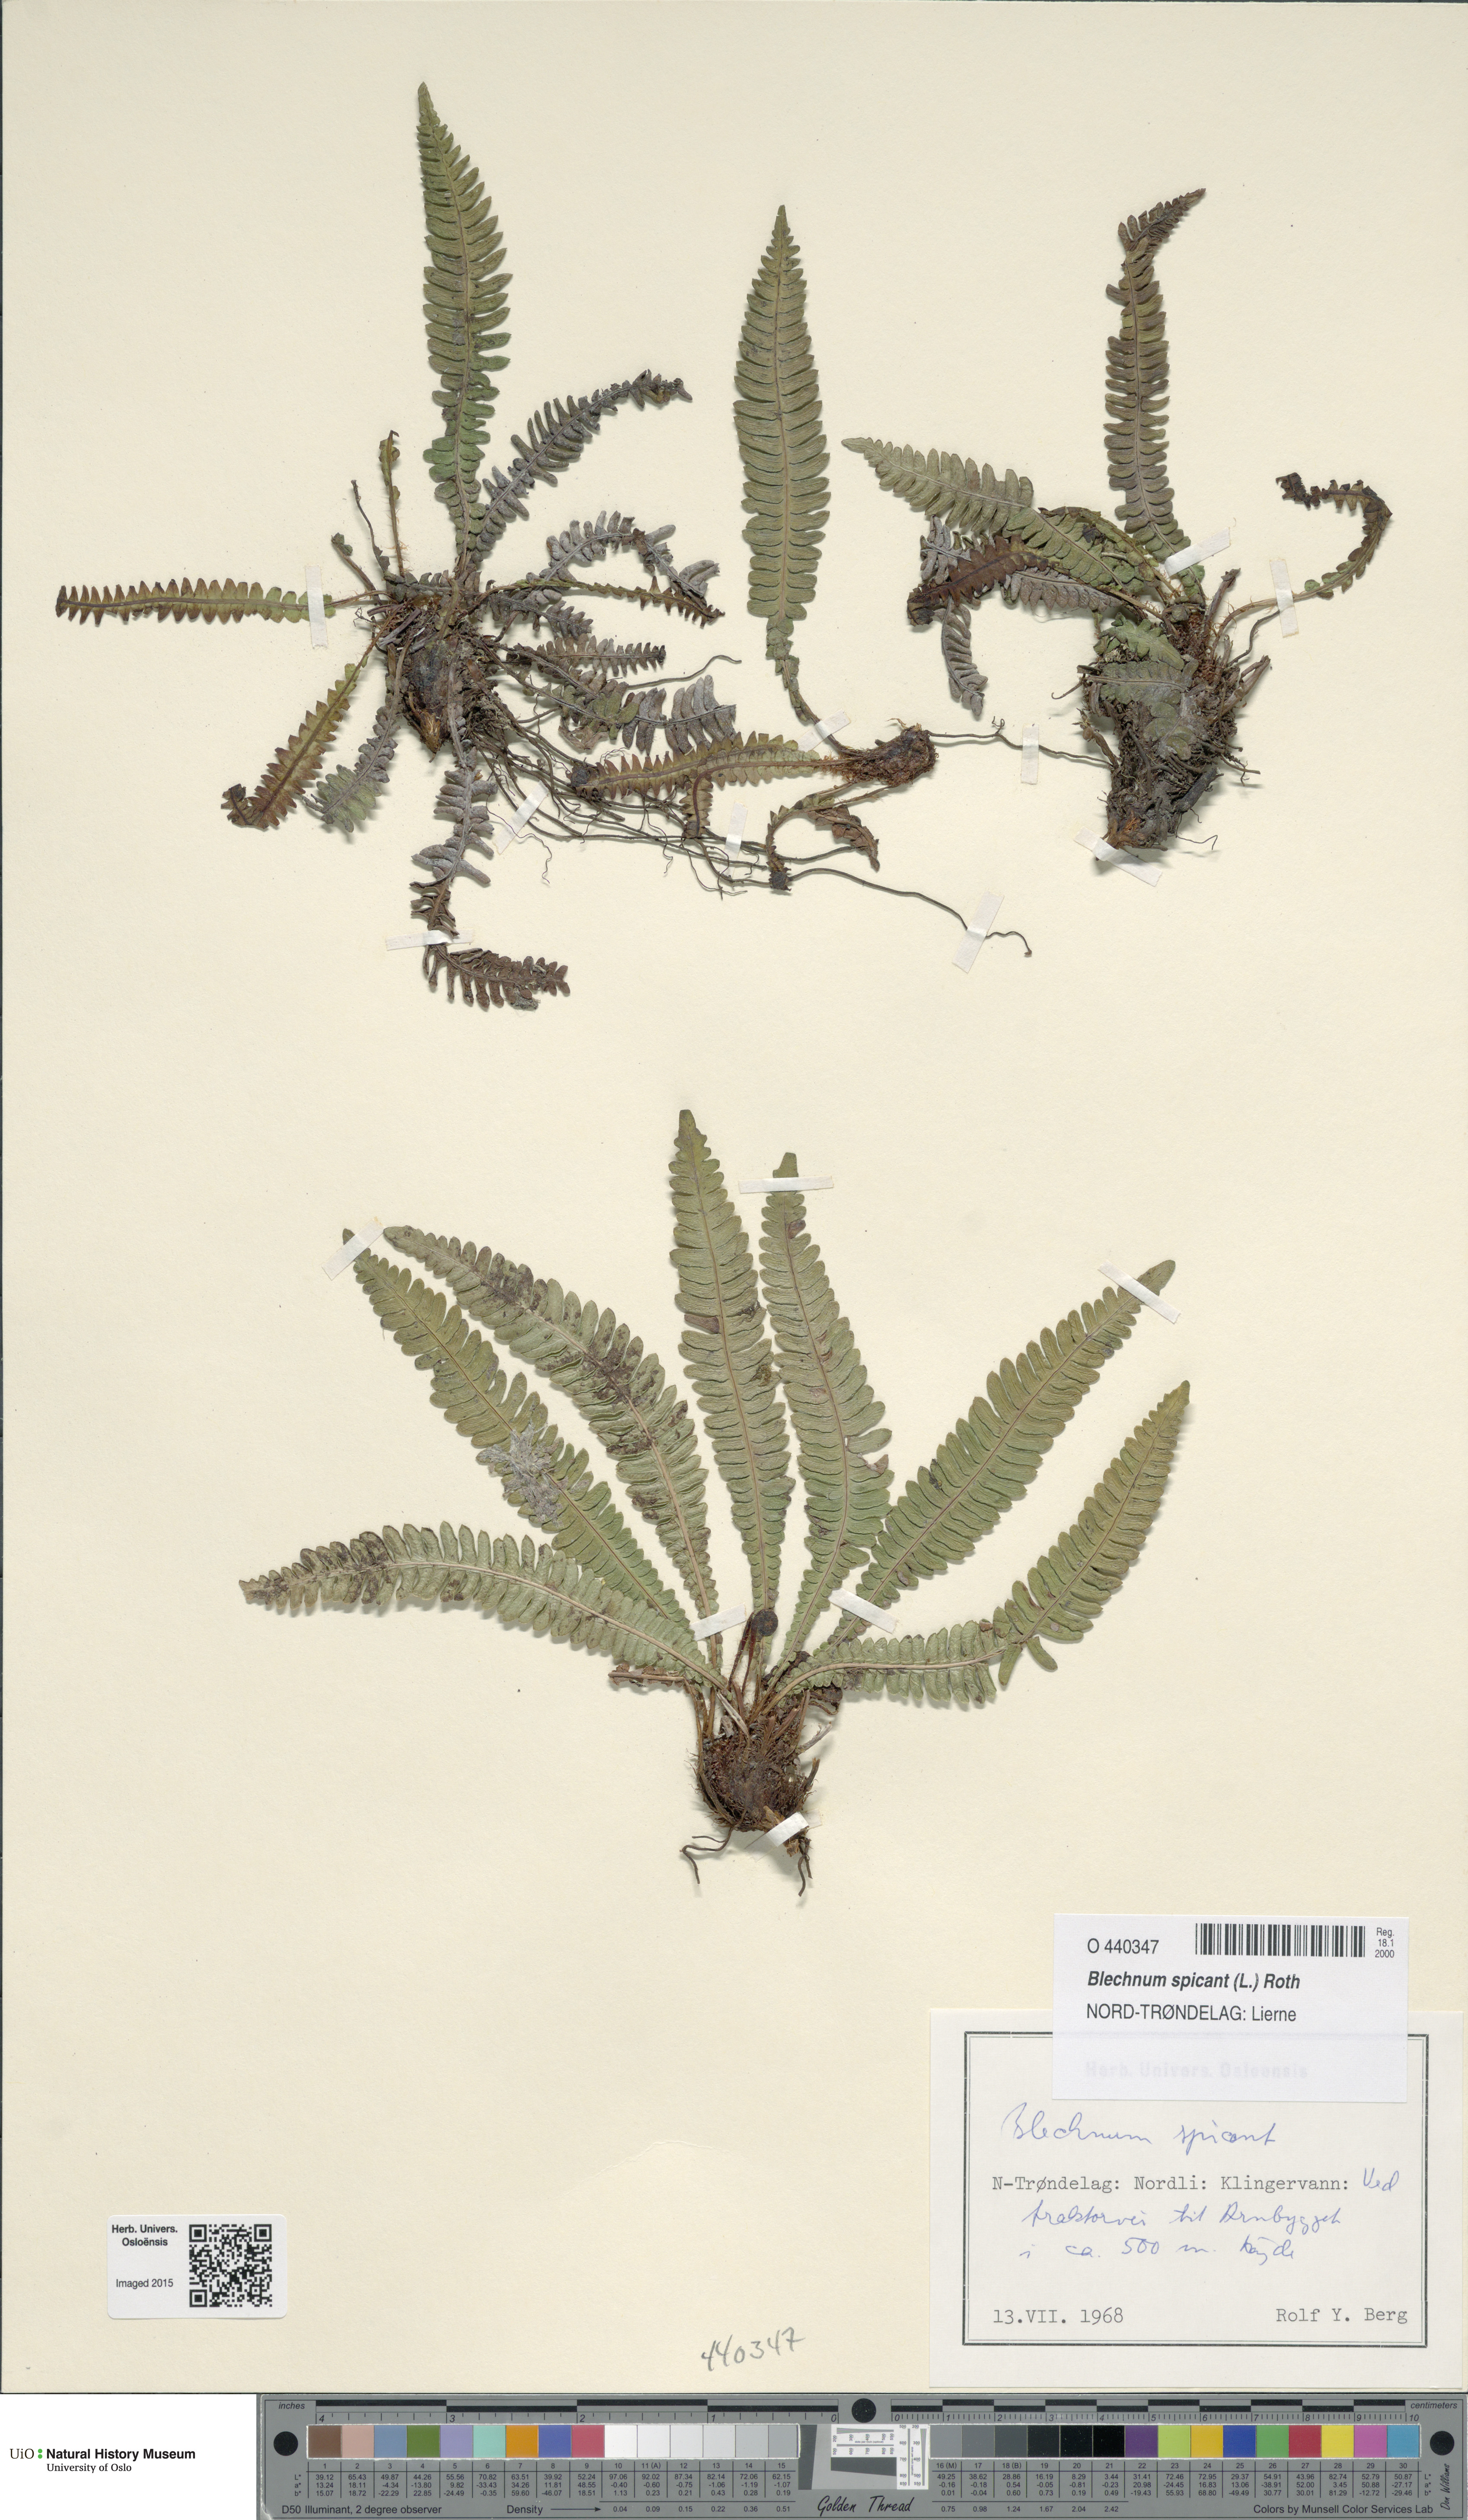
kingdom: Plantae
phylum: Tracheophyta
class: Polypodiopsida
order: Polypodiales
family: Blechnaceae
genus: Struthiopteris
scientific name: Struthiopteris spicant
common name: Deer fern
